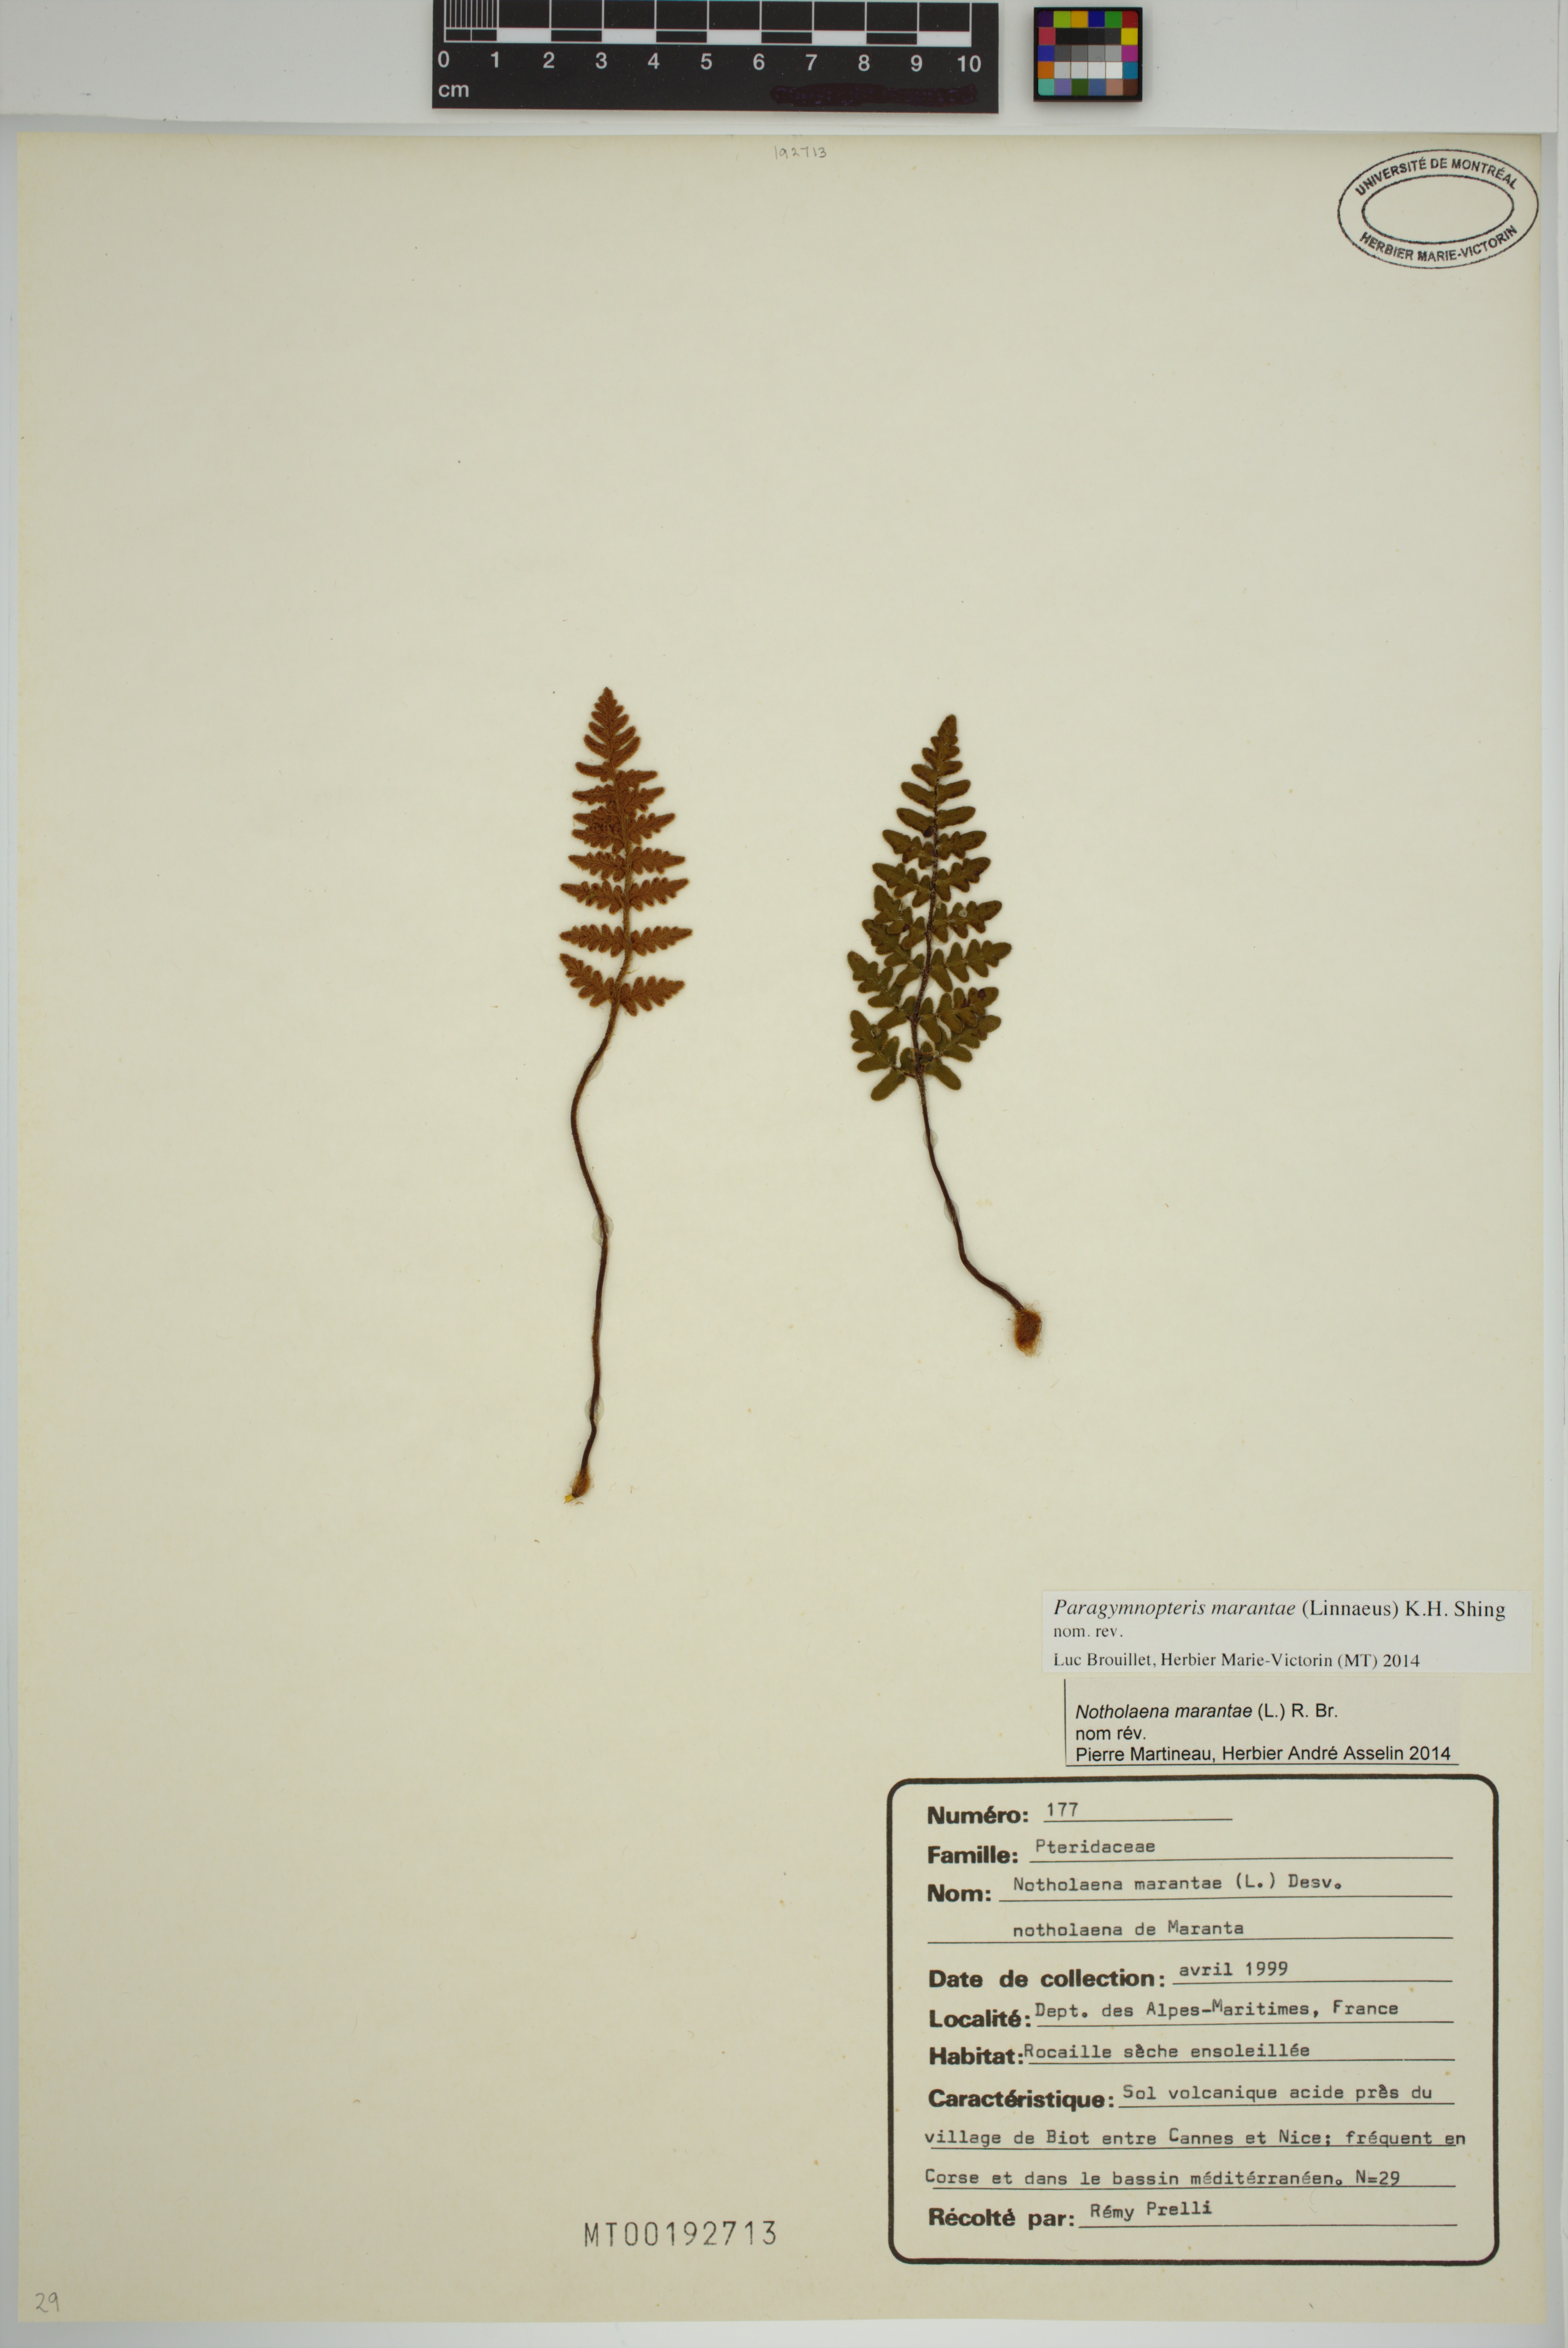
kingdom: Plantae
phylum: Tracheophyta
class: Polypodiopsida
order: Polypodiales
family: Pteridaceae
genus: Paragymnopteris
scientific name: Paragymnopteris marantae
